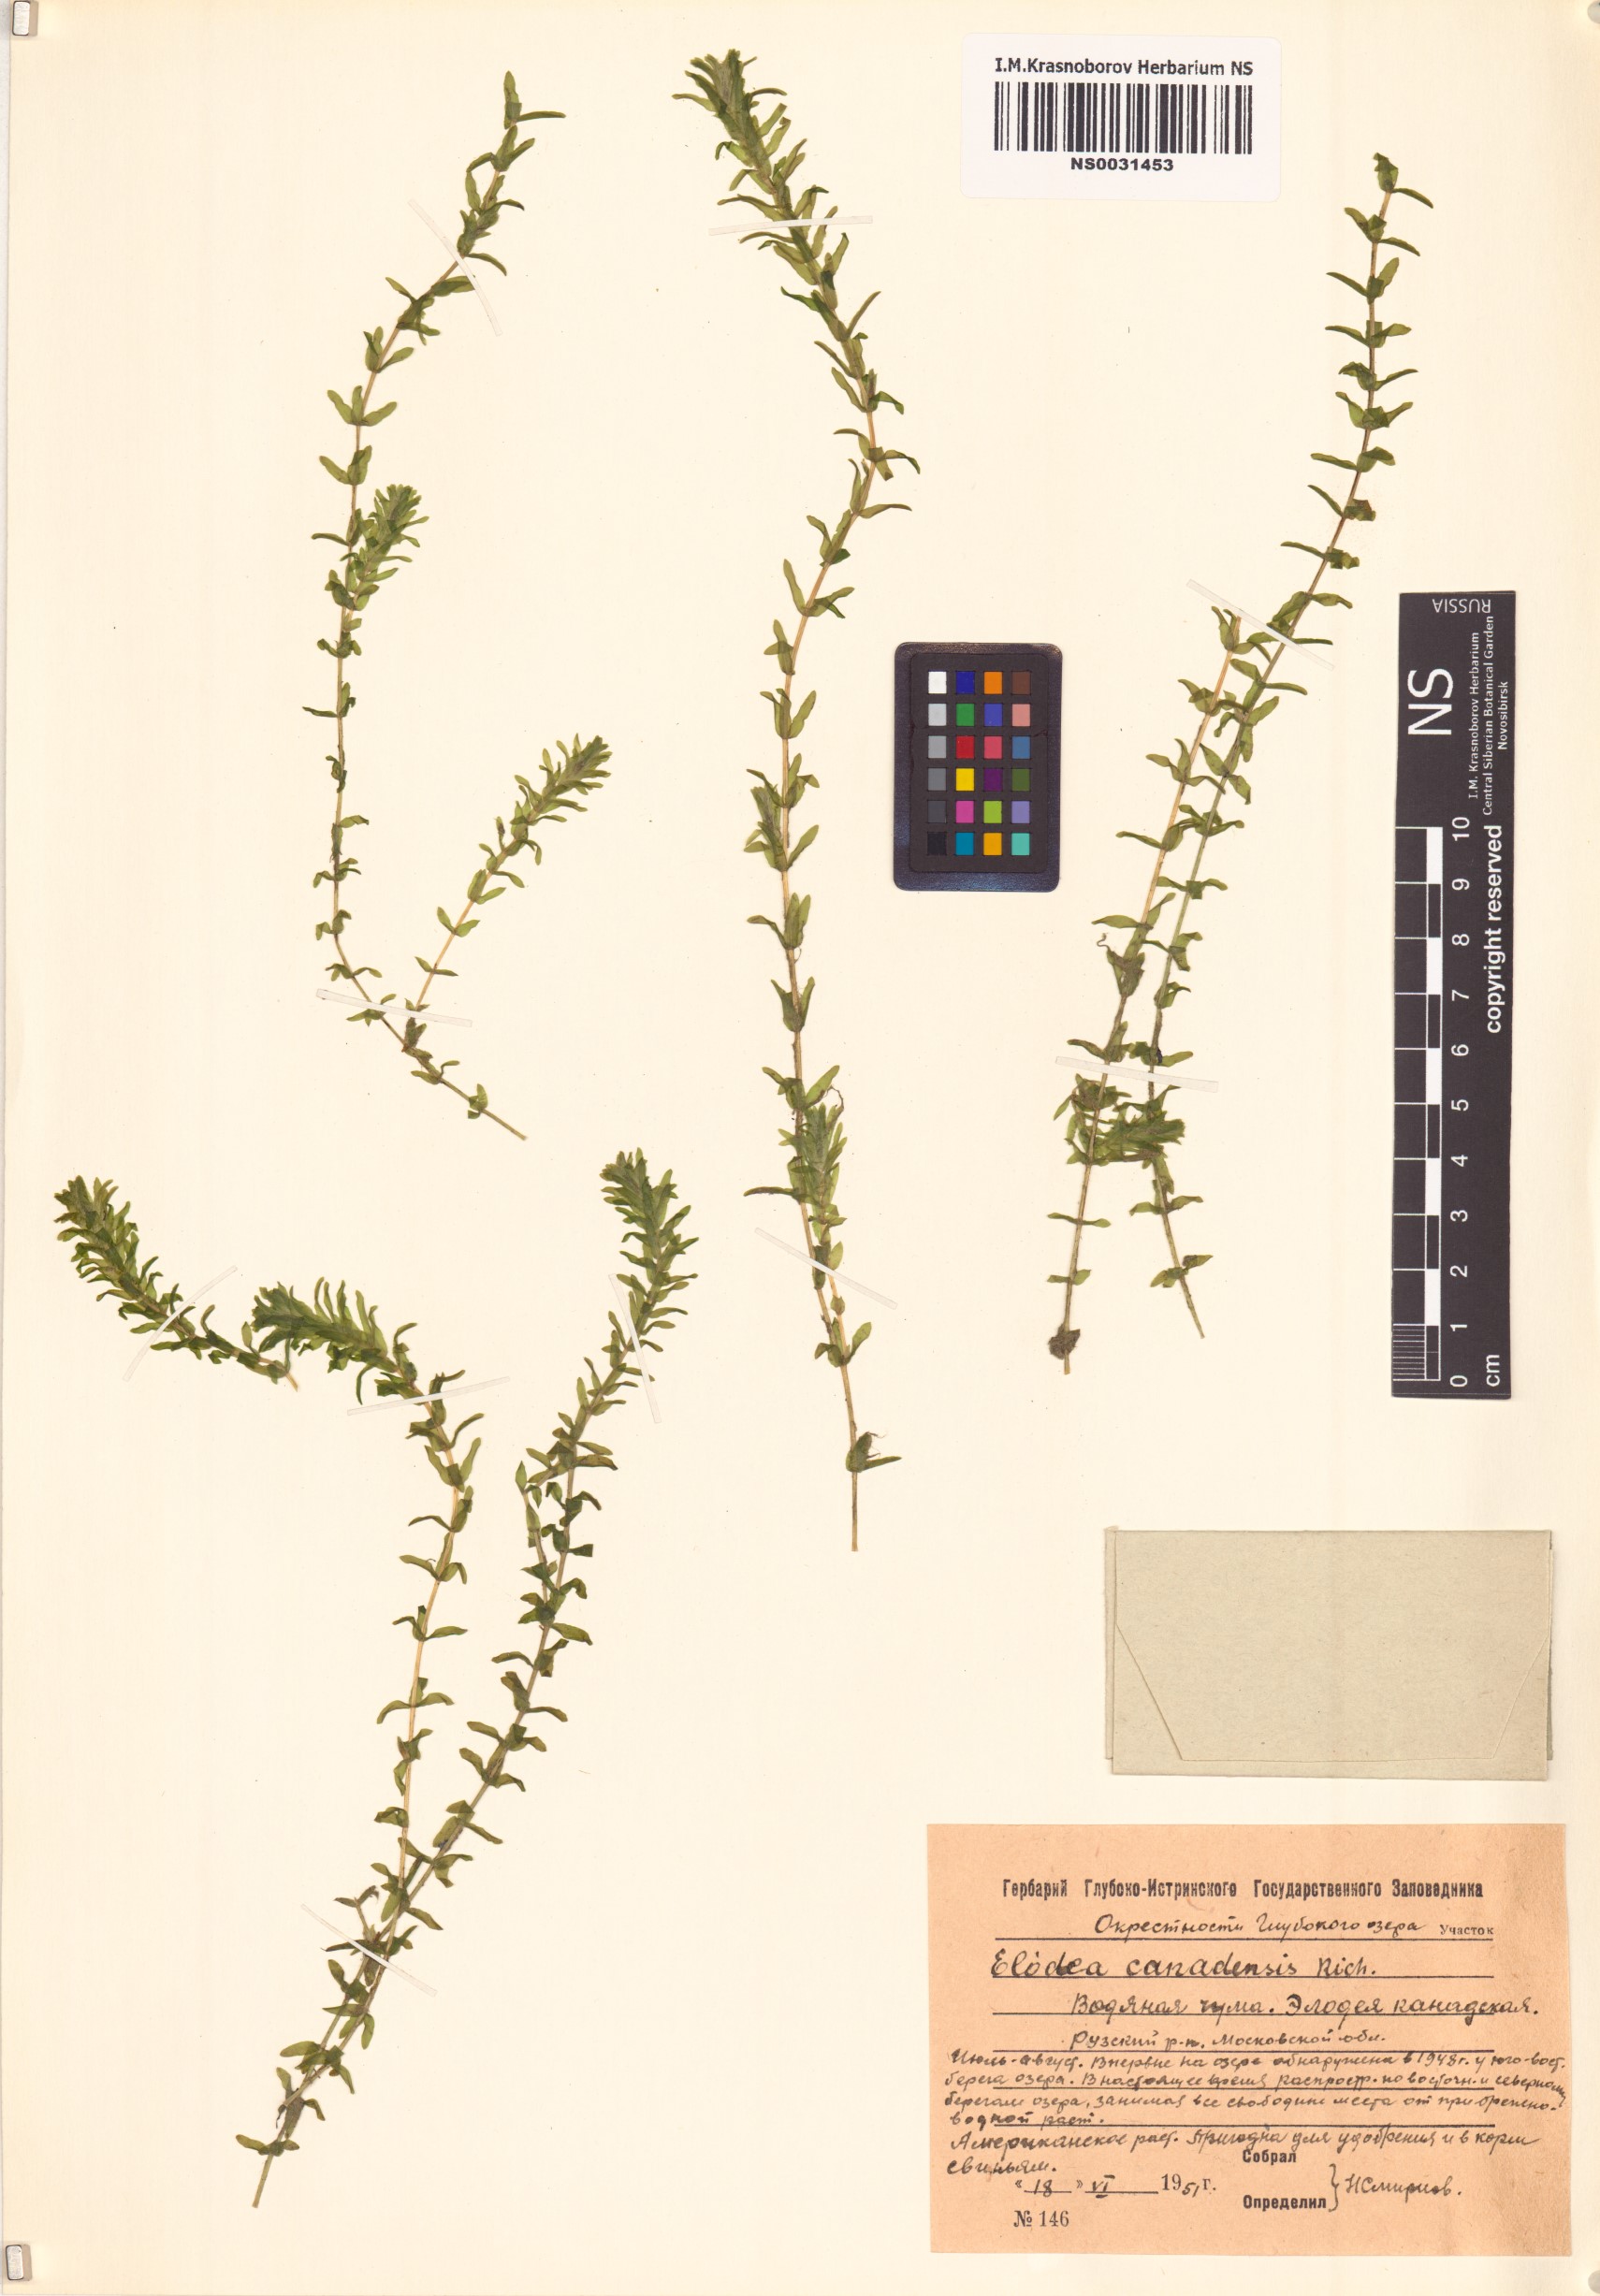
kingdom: Plantae
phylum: Tracheophyta
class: Liliopsida
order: Alismatales
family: Hydrocharitaceae
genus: Elodea
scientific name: Elodea canadensis
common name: Canadian waterweed
